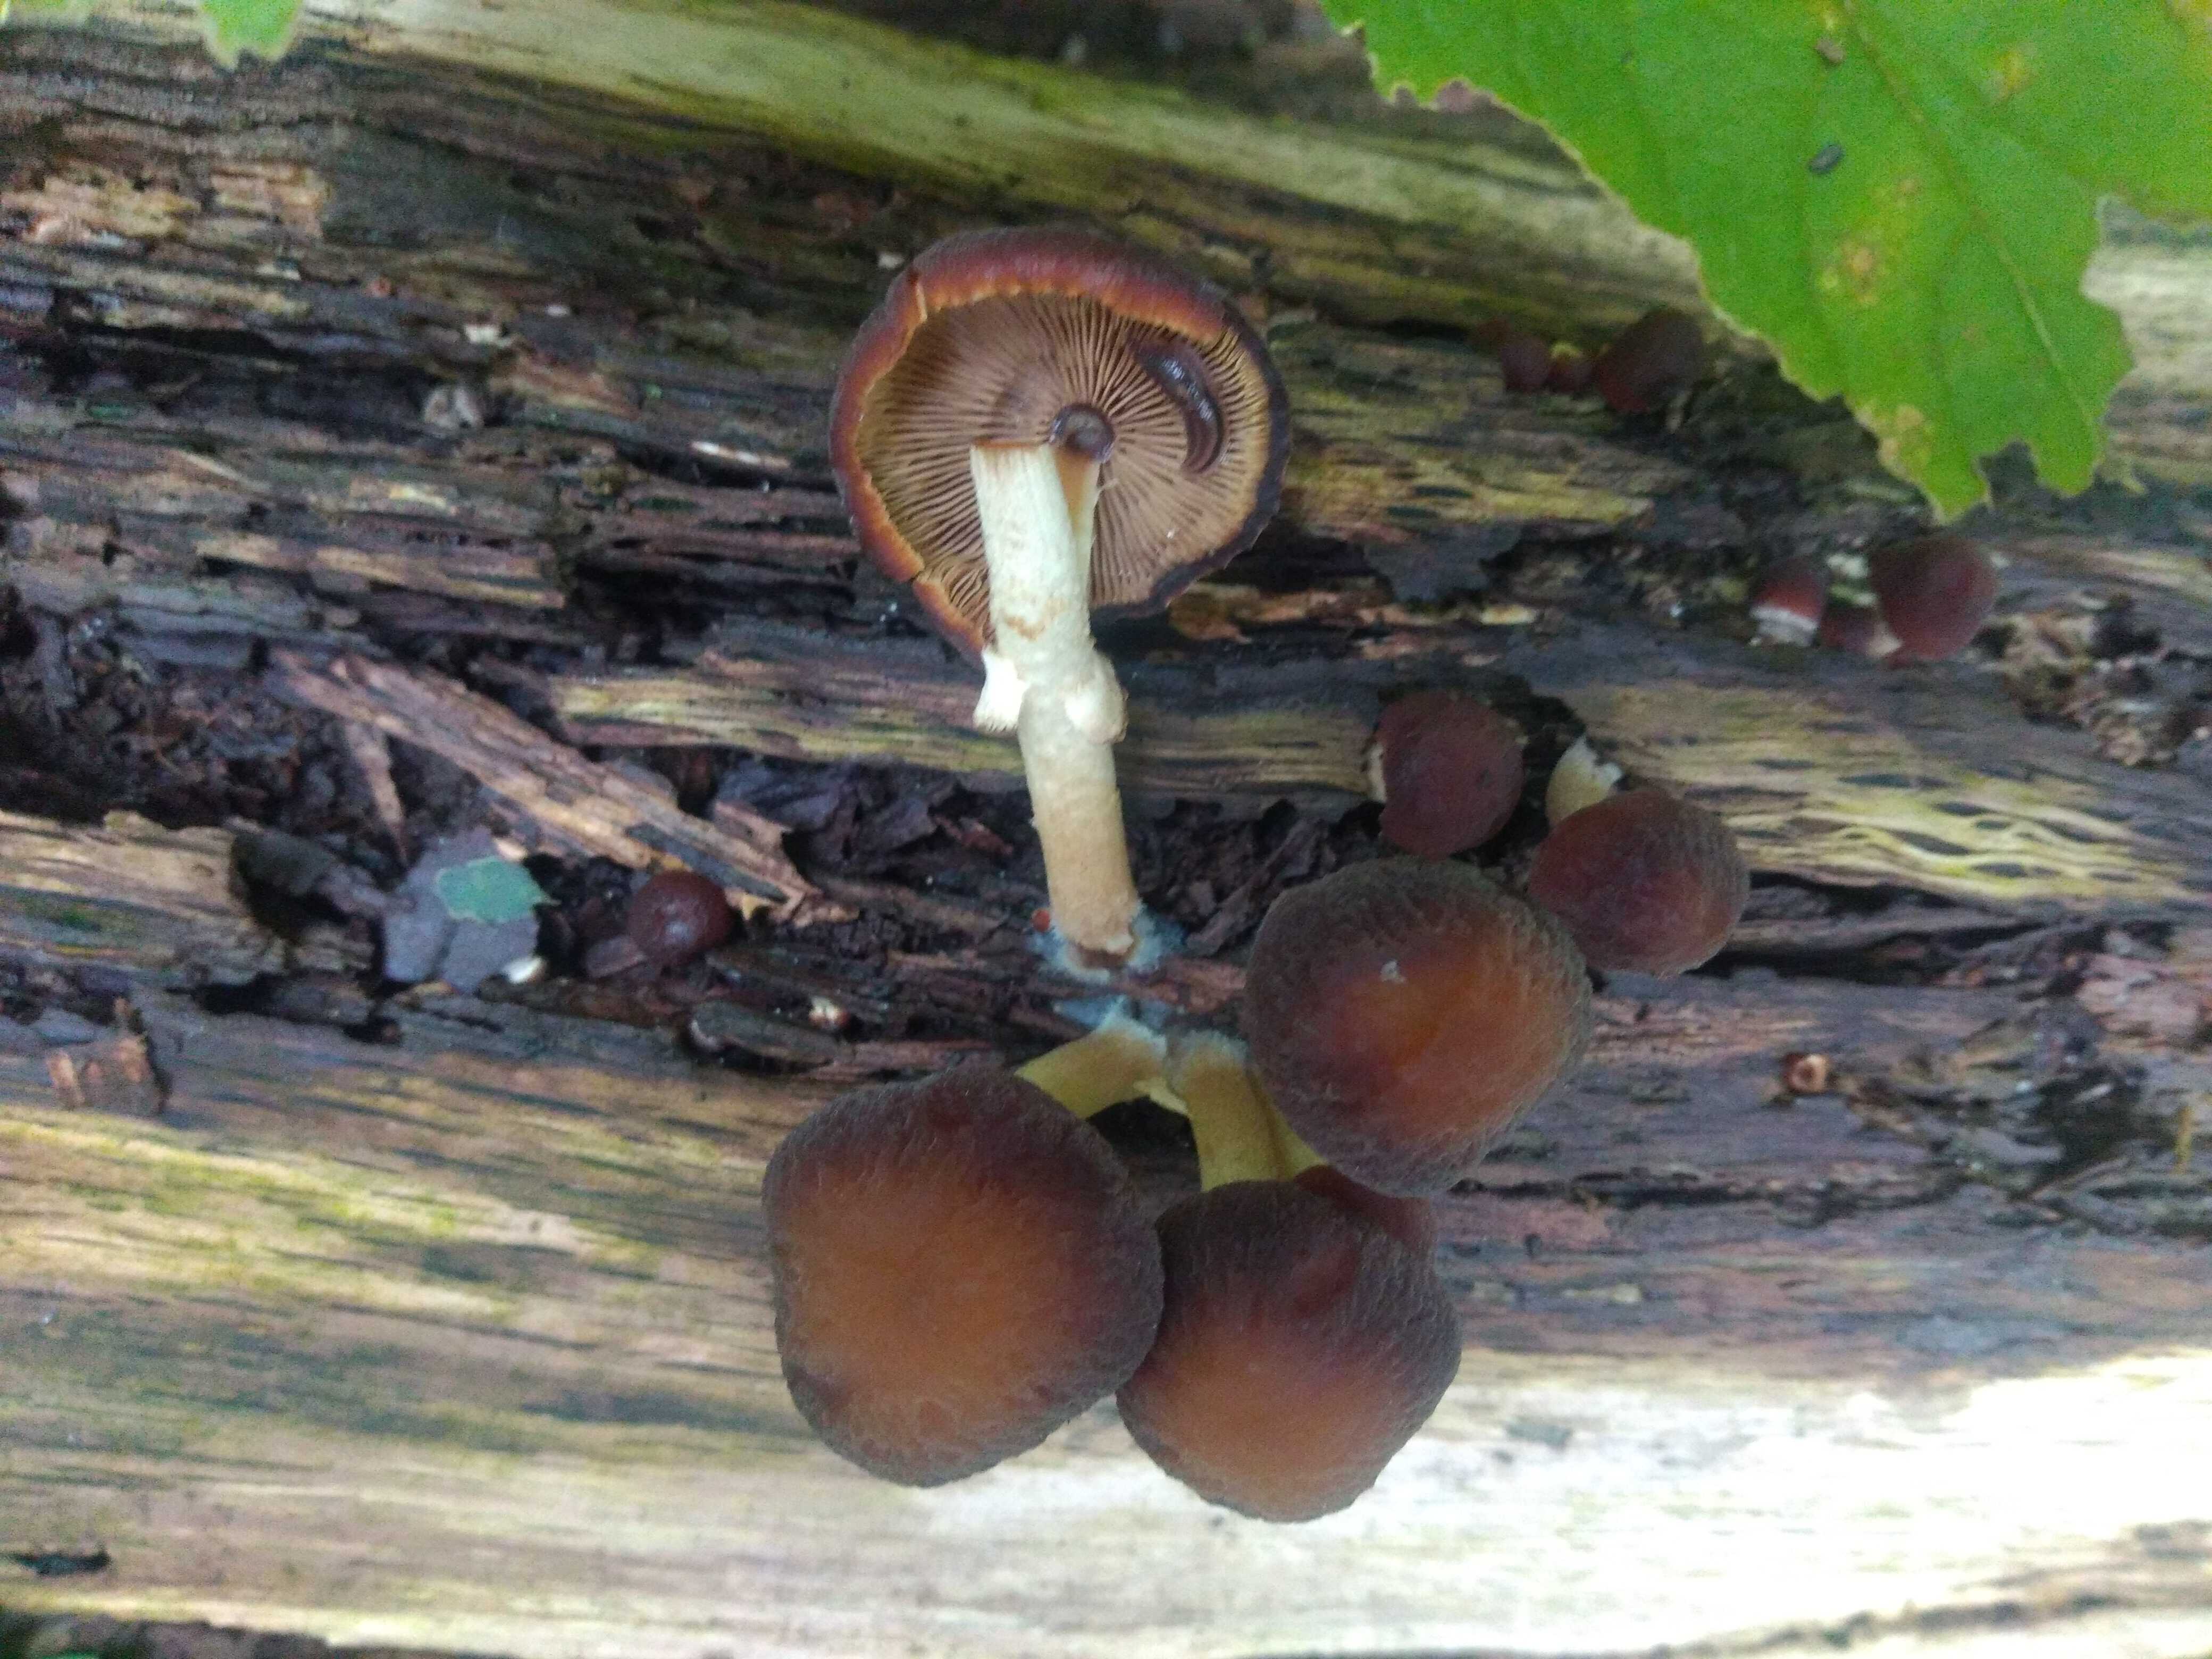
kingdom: Fungi
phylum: Basidiomycota
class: Agaricomycetes
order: Agaricales
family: Psathyrellaceae
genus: Psathyrella
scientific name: Psathyrella piluliformis
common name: lysstokket mørkhat
